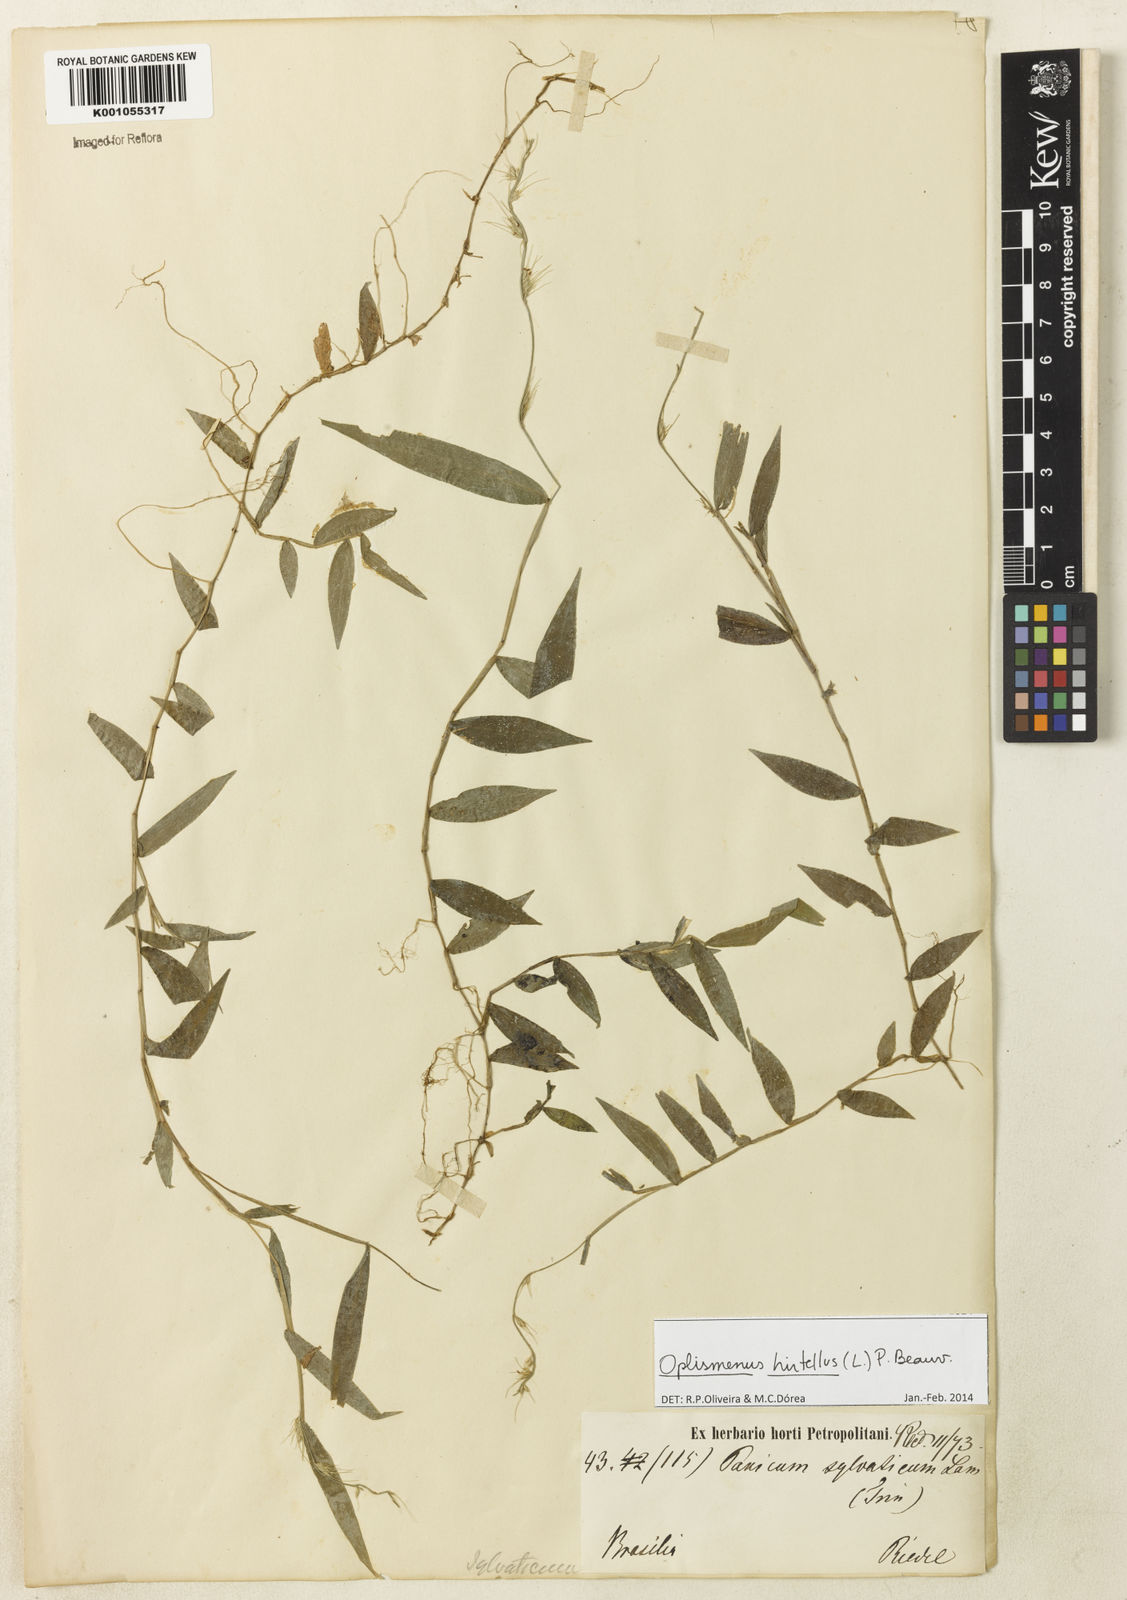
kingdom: Plantae
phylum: Tracheophyta
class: Liliopsida
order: Poales
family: Poaceae
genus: Oplismenus
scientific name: Oplismenus hirtellus
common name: Basketgrass
